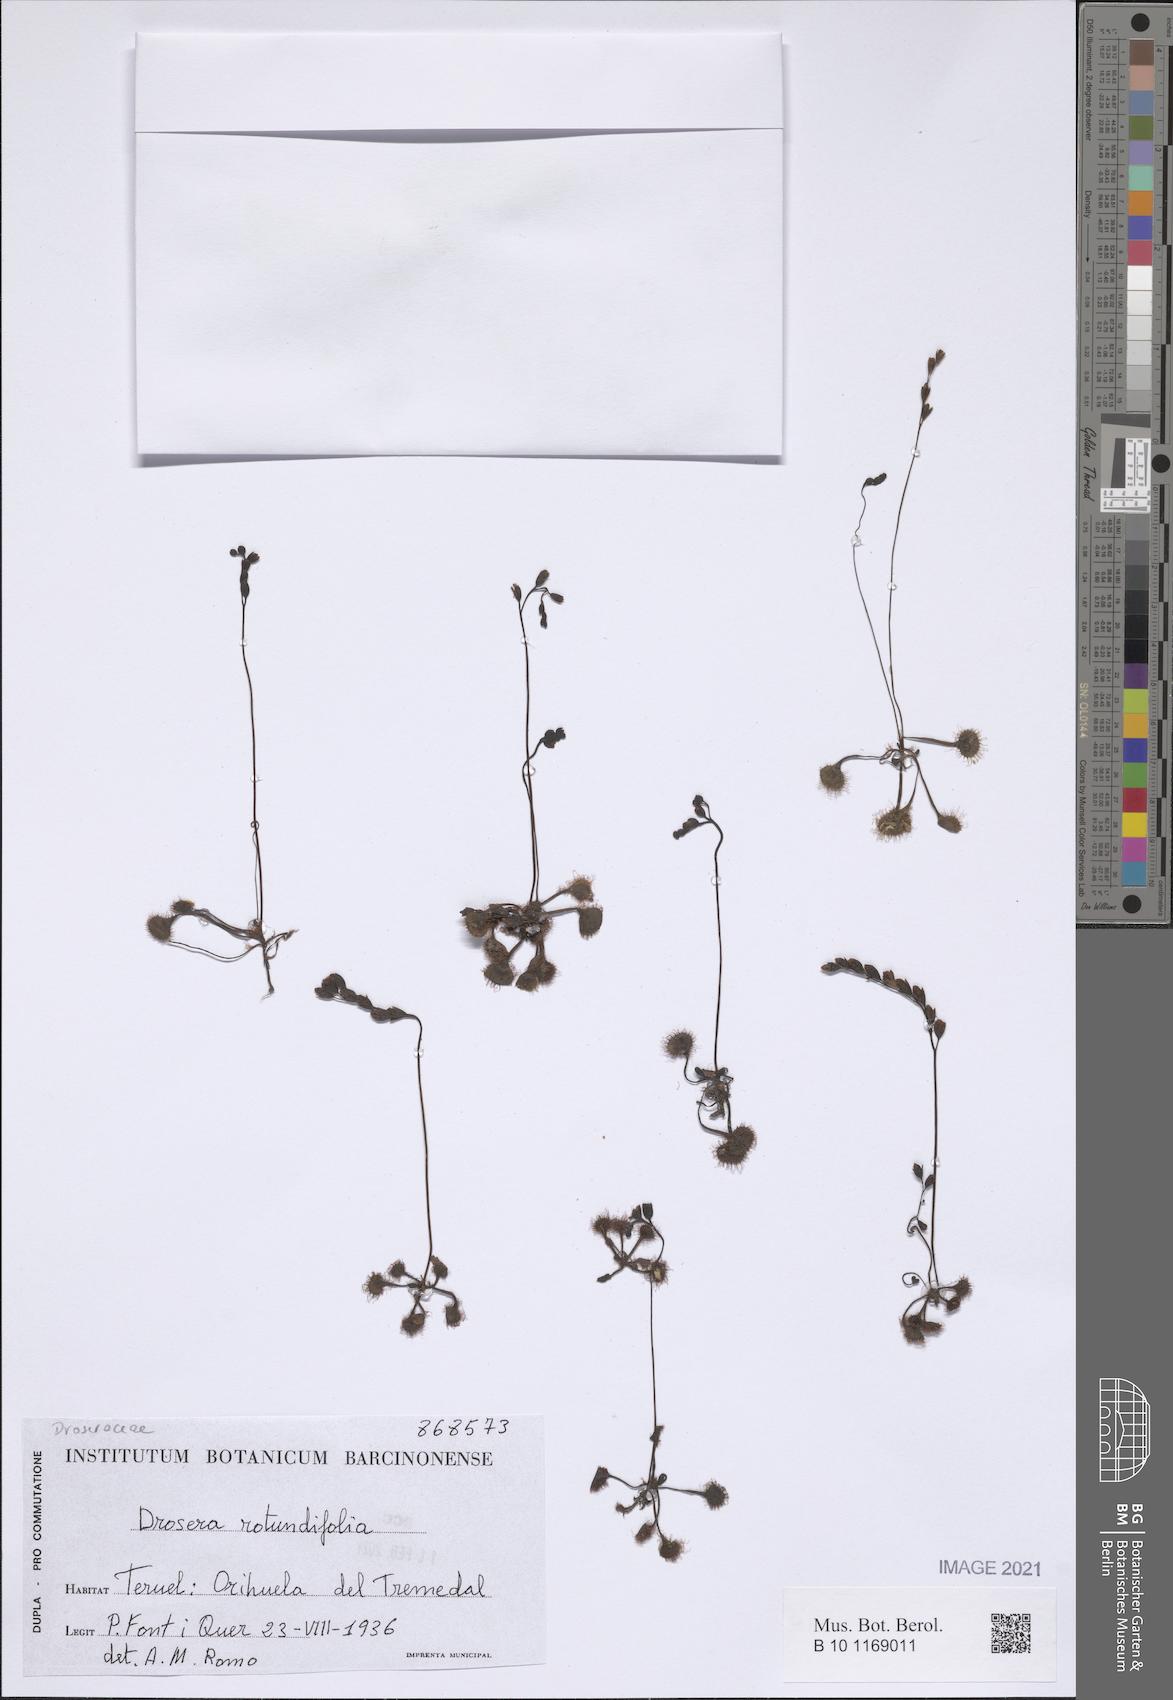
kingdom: Plantae
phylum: Tracheophyta
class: Magnoliopsida
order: Caryophyllales
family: Droseraceae
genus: Drosera
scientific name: Drosera rotundifolia
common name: Round-leaved sundew
